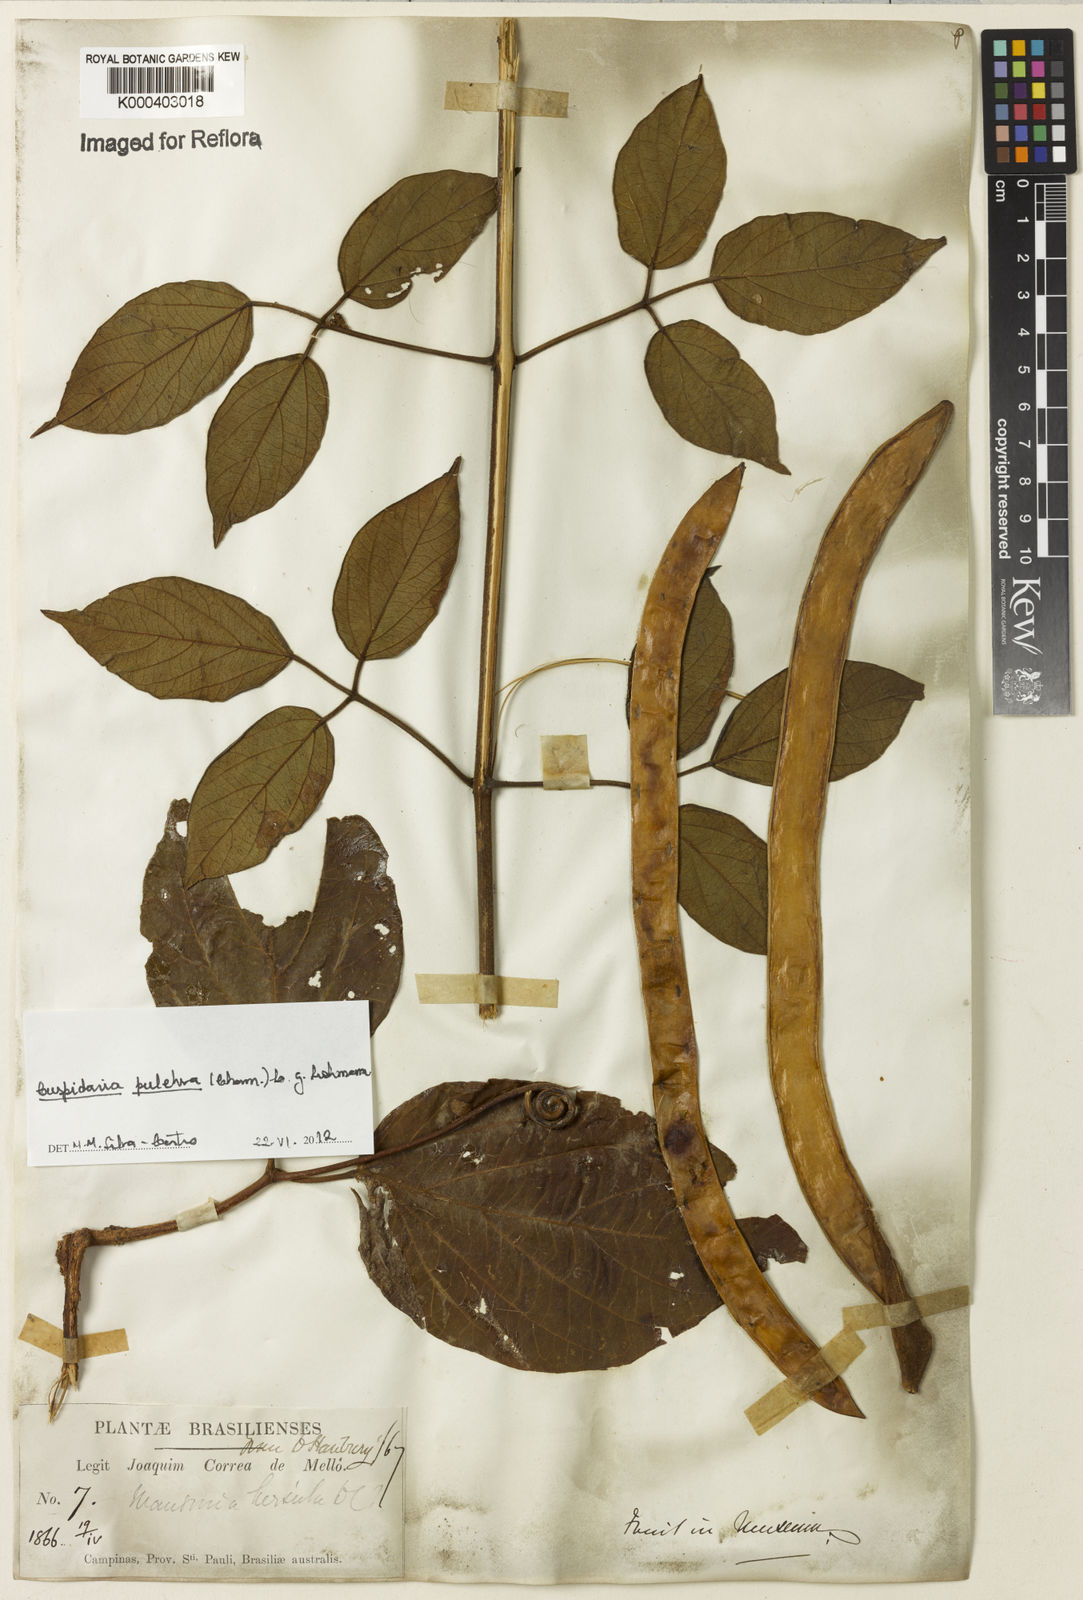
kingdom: Plantae
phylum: Tracheophyta
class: Magnoliopsida
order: Lamiales
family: Bignoniaceae
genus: Cuspidaria
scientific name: Cuspidaria pulchra
